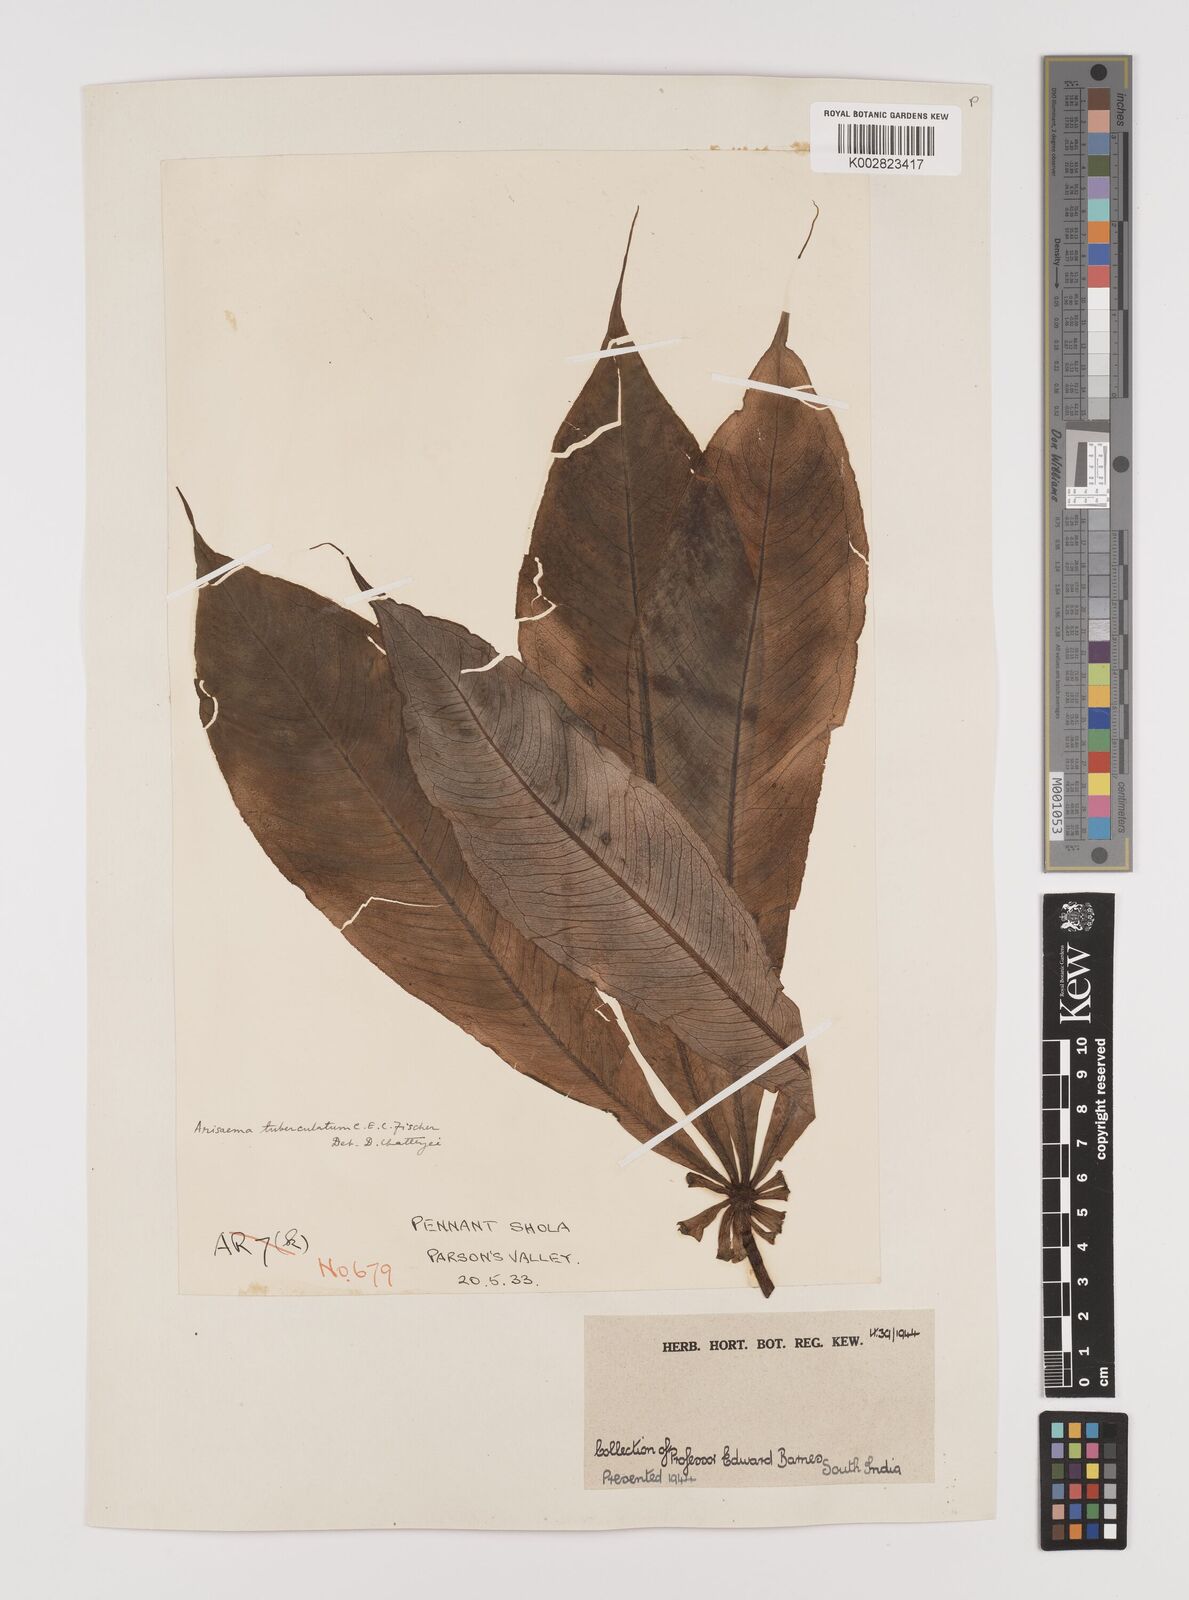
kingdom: Plantae
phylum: Tracheophyta
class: Liliopsida
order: Alismatales
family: Araceae
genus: Arisaema
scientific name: Arisaema tuberculatum
